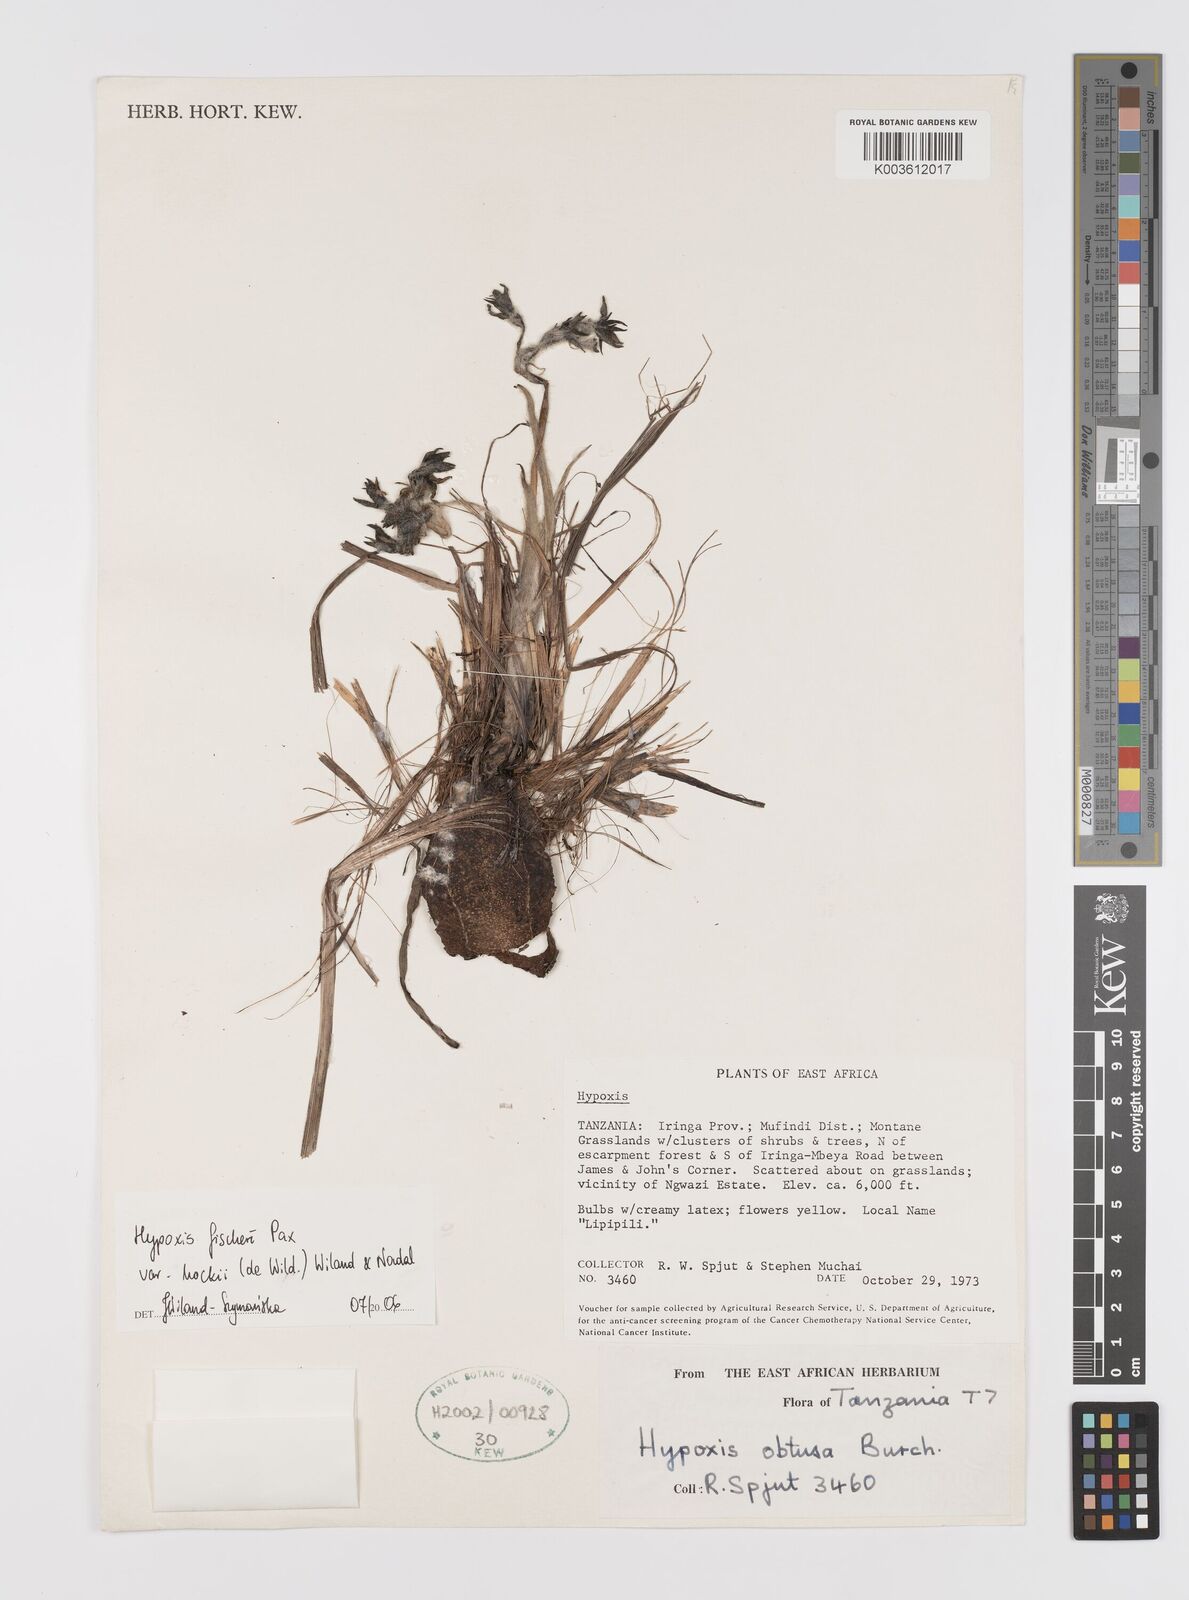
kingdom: Plantae
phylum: Tracheophyta
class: Liliopsida
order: Asparagales
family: Hypoxidaceae
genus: Hypoxis
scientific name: Hypoxis fischeri
